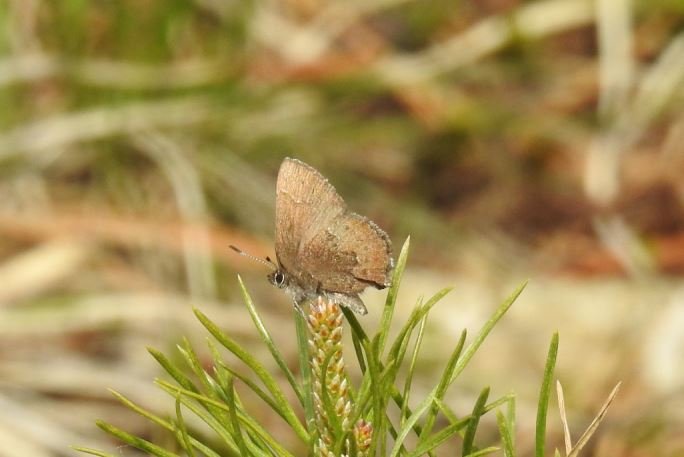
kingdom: Animalia
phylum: Arthropoda
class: Insecta
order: Lepidoptera
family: Lycaenidae
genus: Incisalia
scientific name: Incisalia irioides
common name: Brown Elfin
